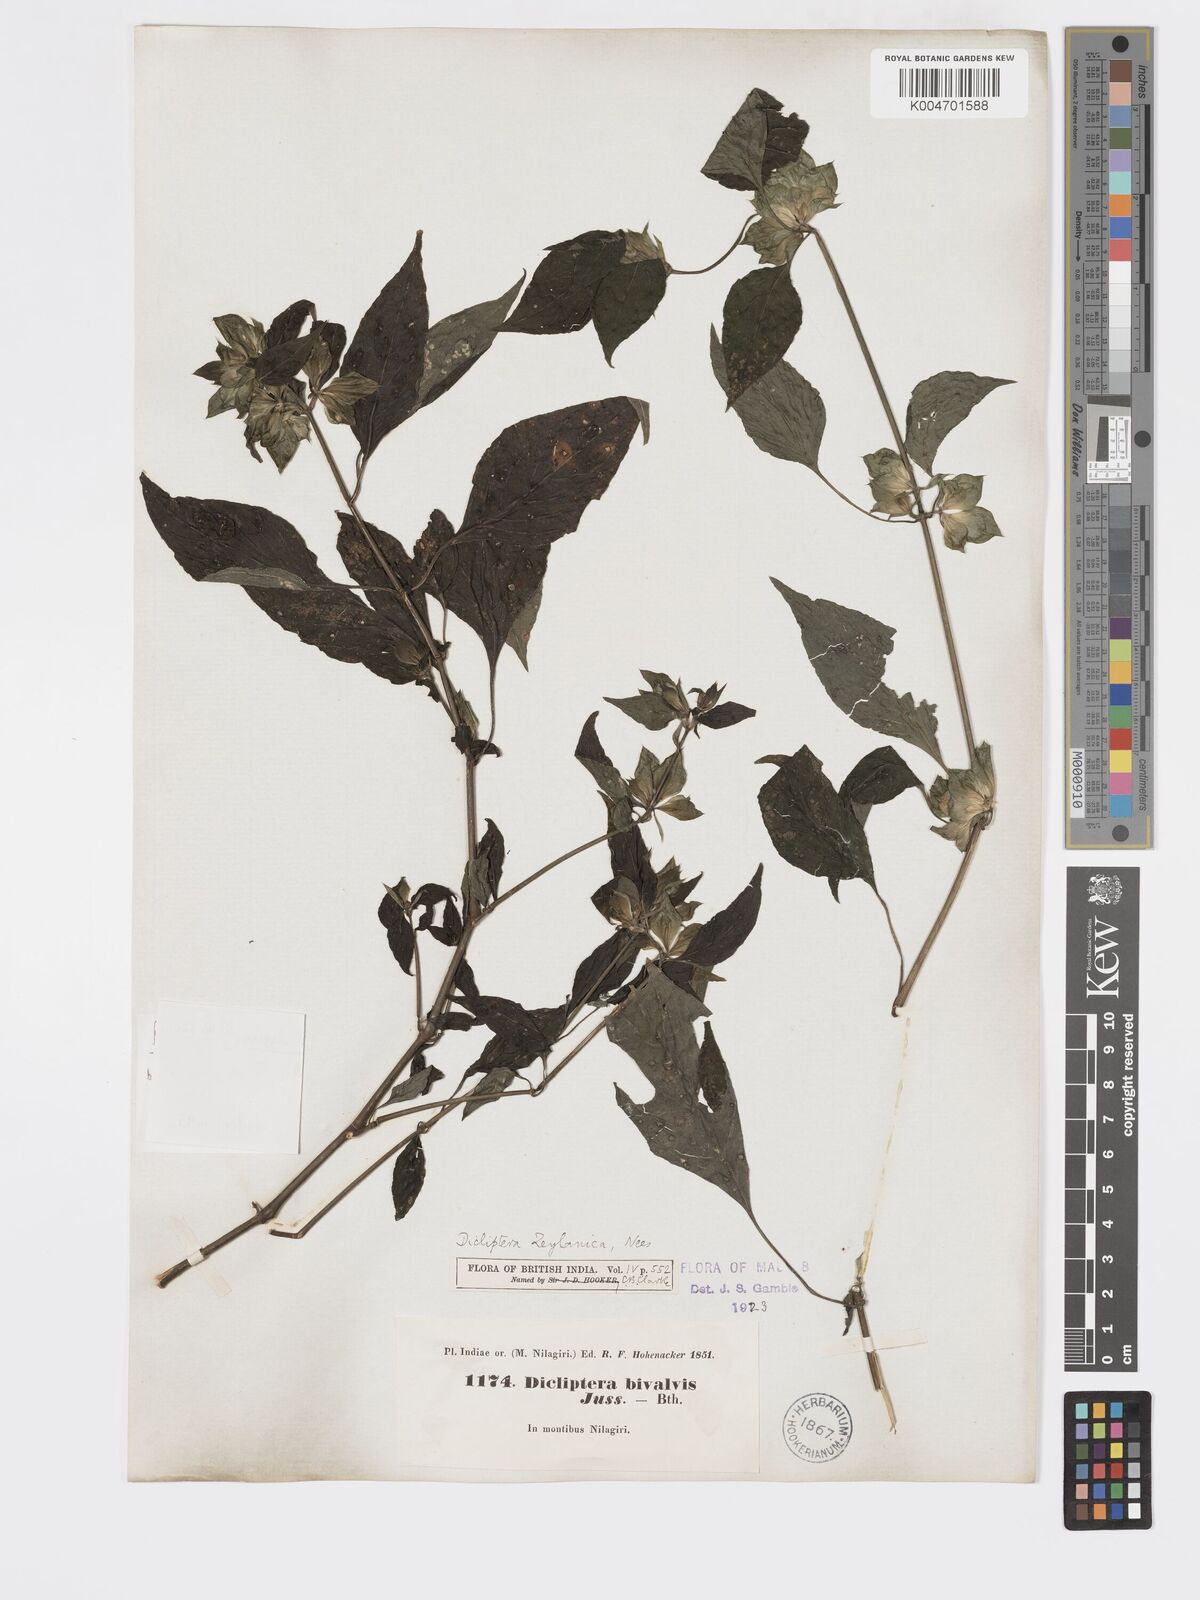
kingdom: Plantae
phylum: Tracheophyta
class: Magnoliopsida
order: Lamiales
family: Acanthaceae
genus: Dicliptera
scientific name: Dicliptera foetida
